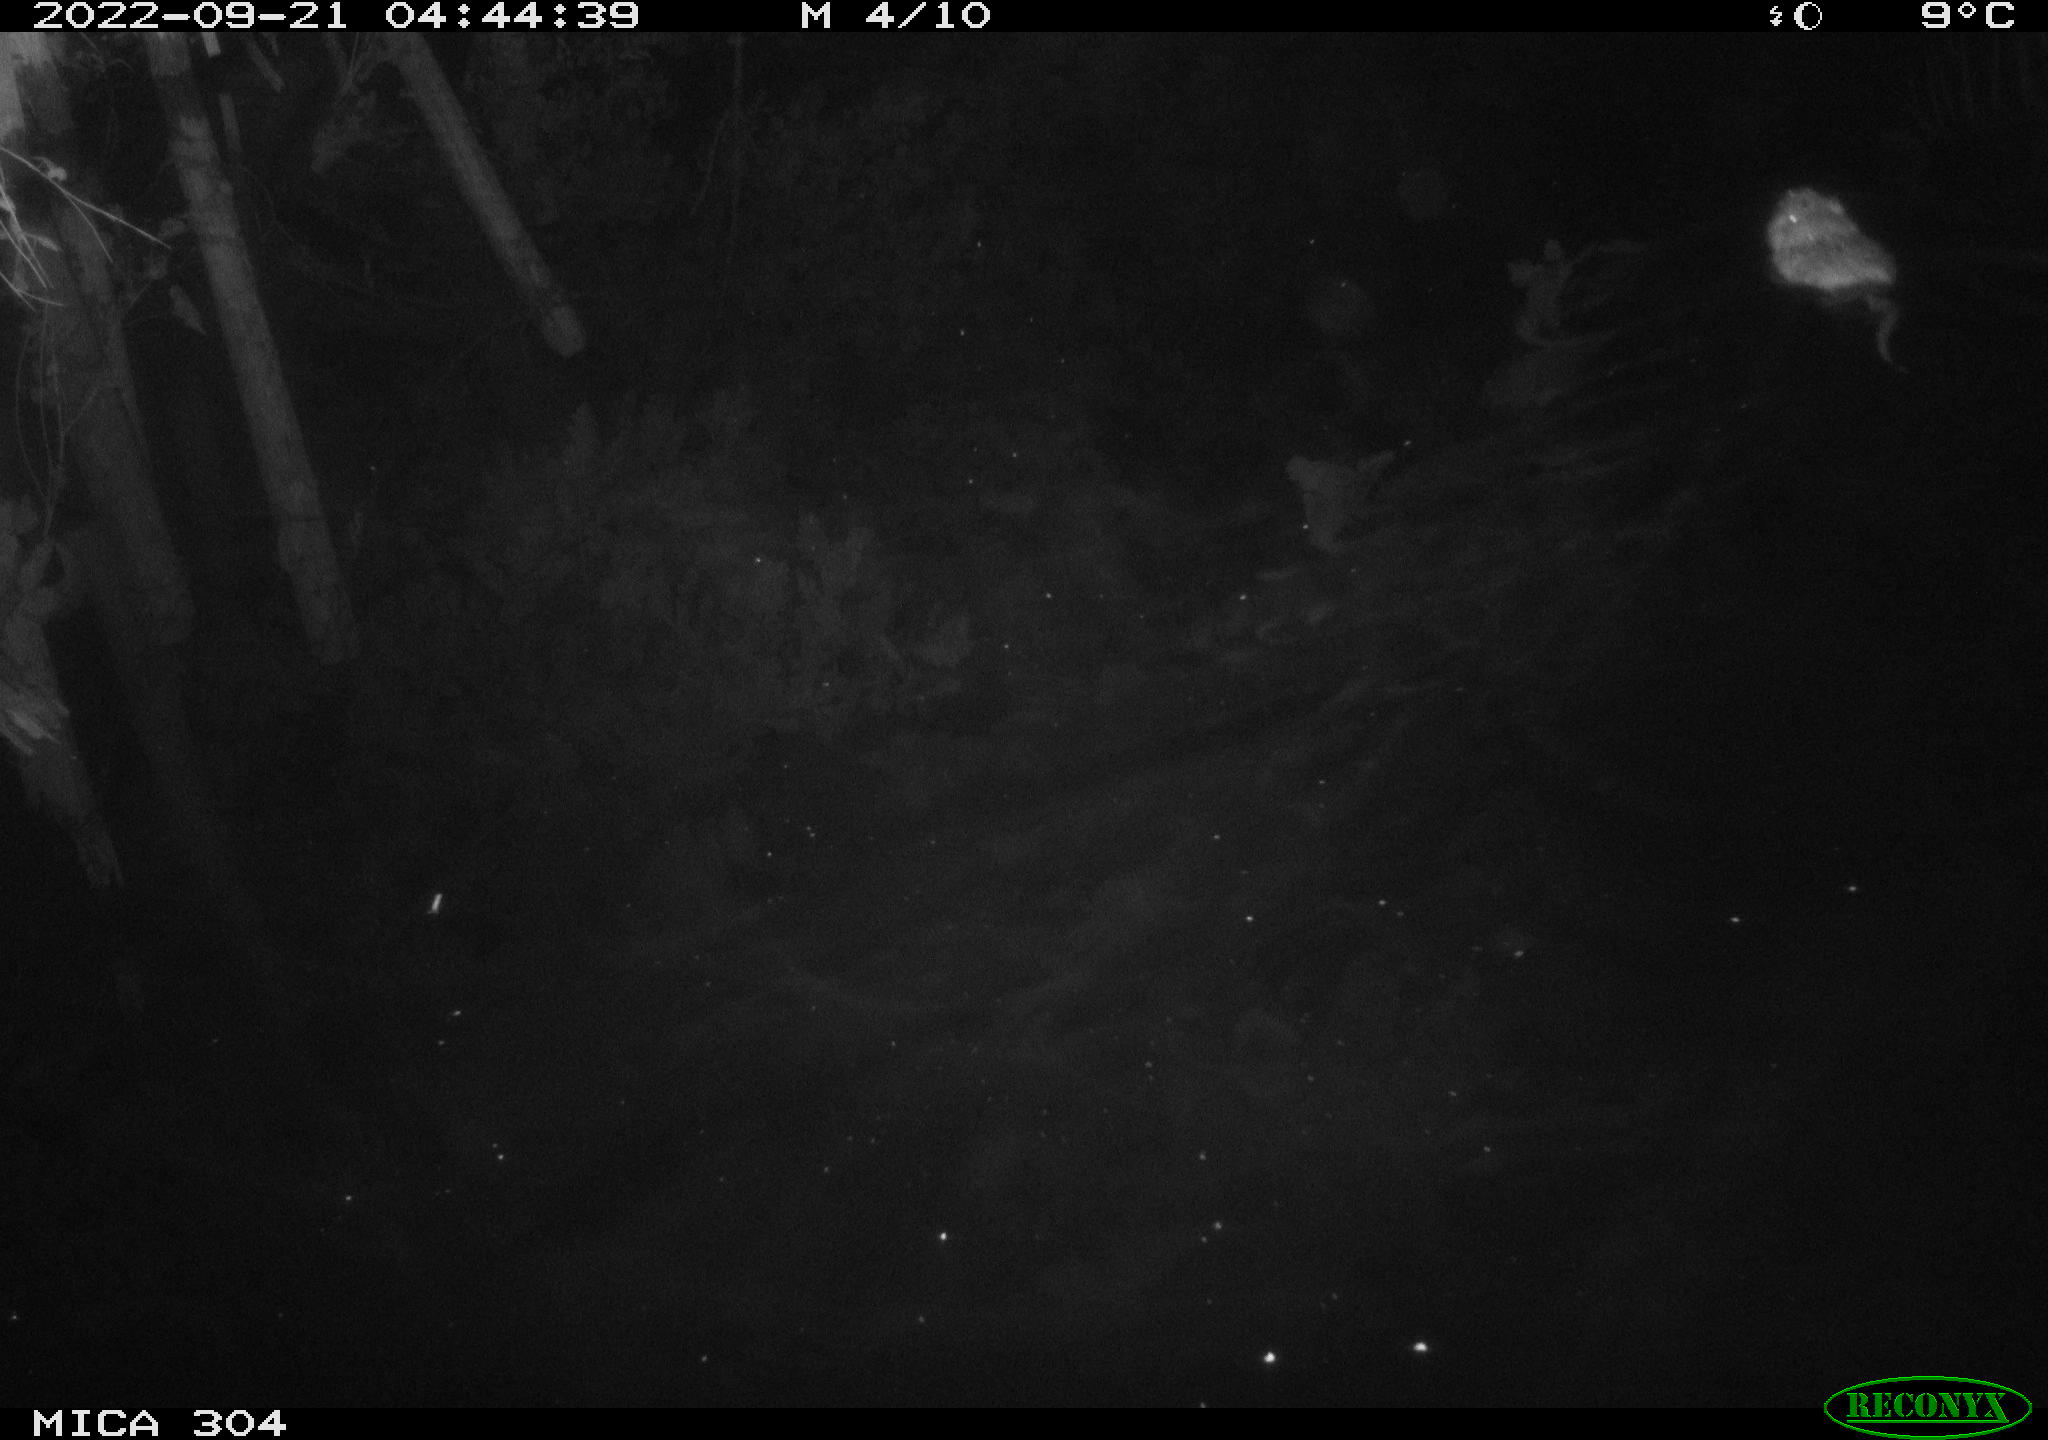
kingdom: Animalia
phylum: Chordata
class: Mammalia
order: Rodentia
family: Cricetidae
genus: Ondatra
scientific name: Ondatra zibethicus
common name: Muskrat
